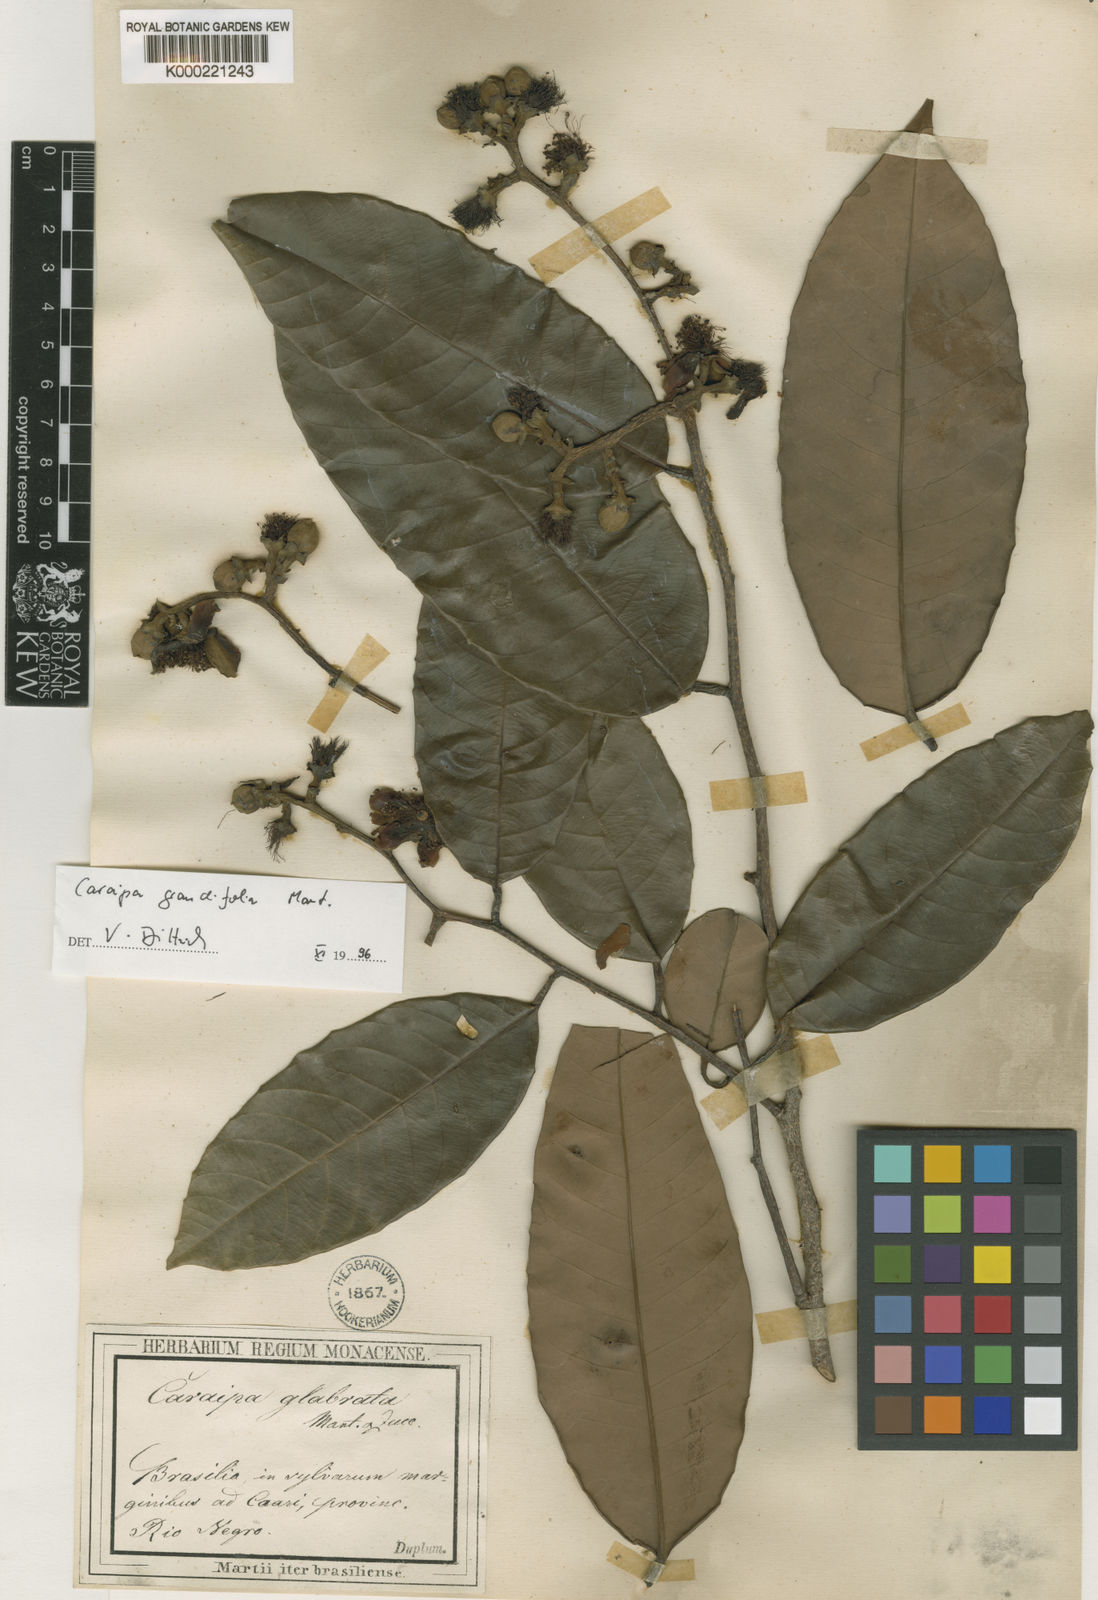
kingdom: Plantae
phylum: Tracheophyta
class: Magnoliopsida
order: Malpighiales
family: Calophyllaceae
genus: Caraipa
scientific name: Caraipa grandifolia
